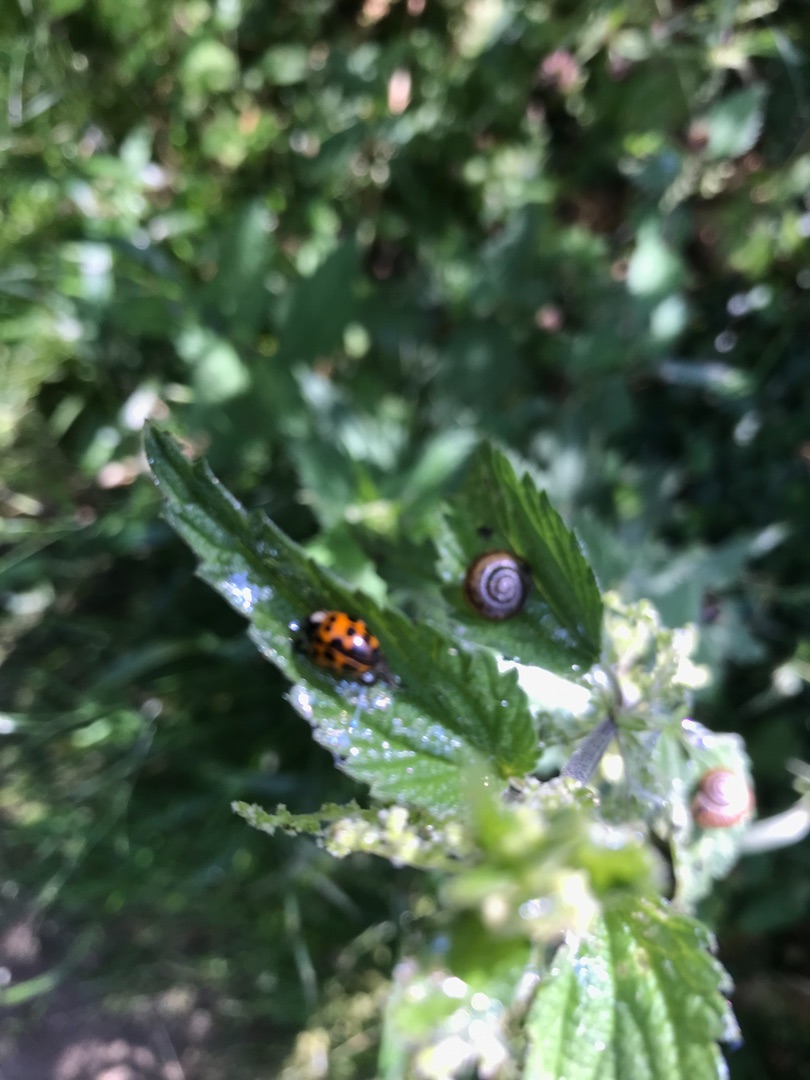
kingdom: Animalia
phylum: Arthropoda
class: Insecta
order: Coleoptera
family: Coccinellidae
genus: Harmonia
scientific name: Harmonia axyridis
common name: Harlekinmariehøne
